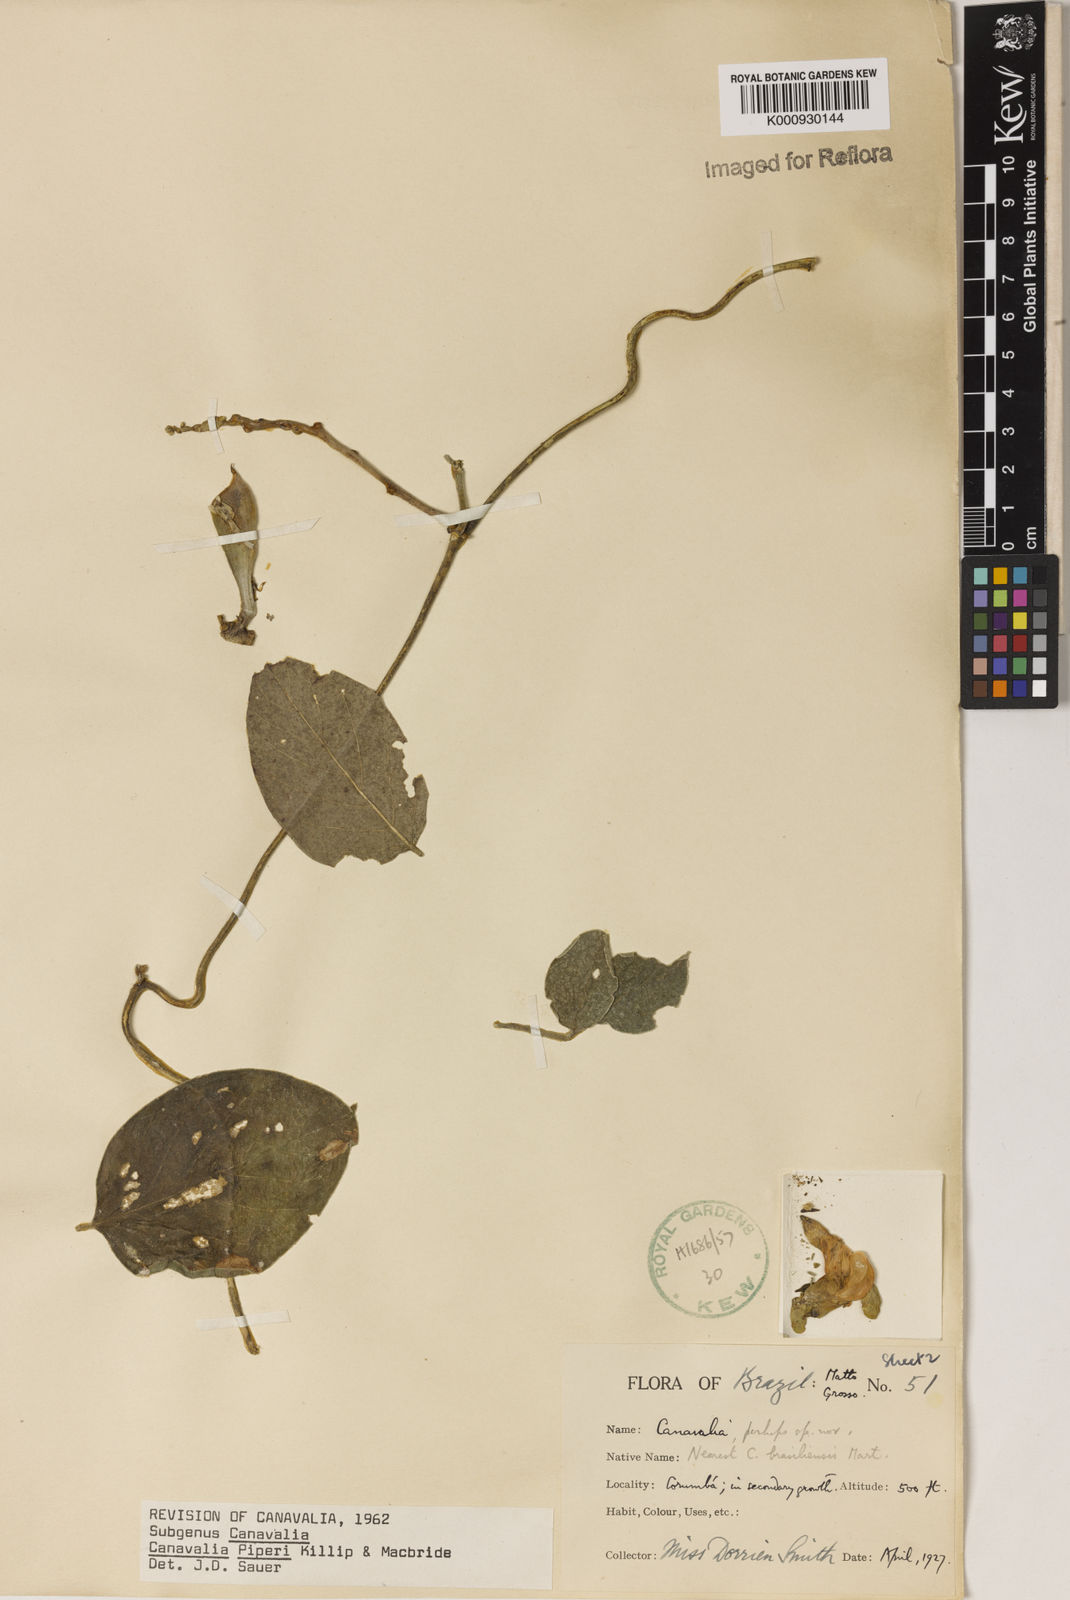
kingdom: Plantae
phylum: Tracheophyta
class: Magnoliopsida
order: Fabales
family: Fabaceae
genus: Canavalia
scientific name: Canavalia piperi
